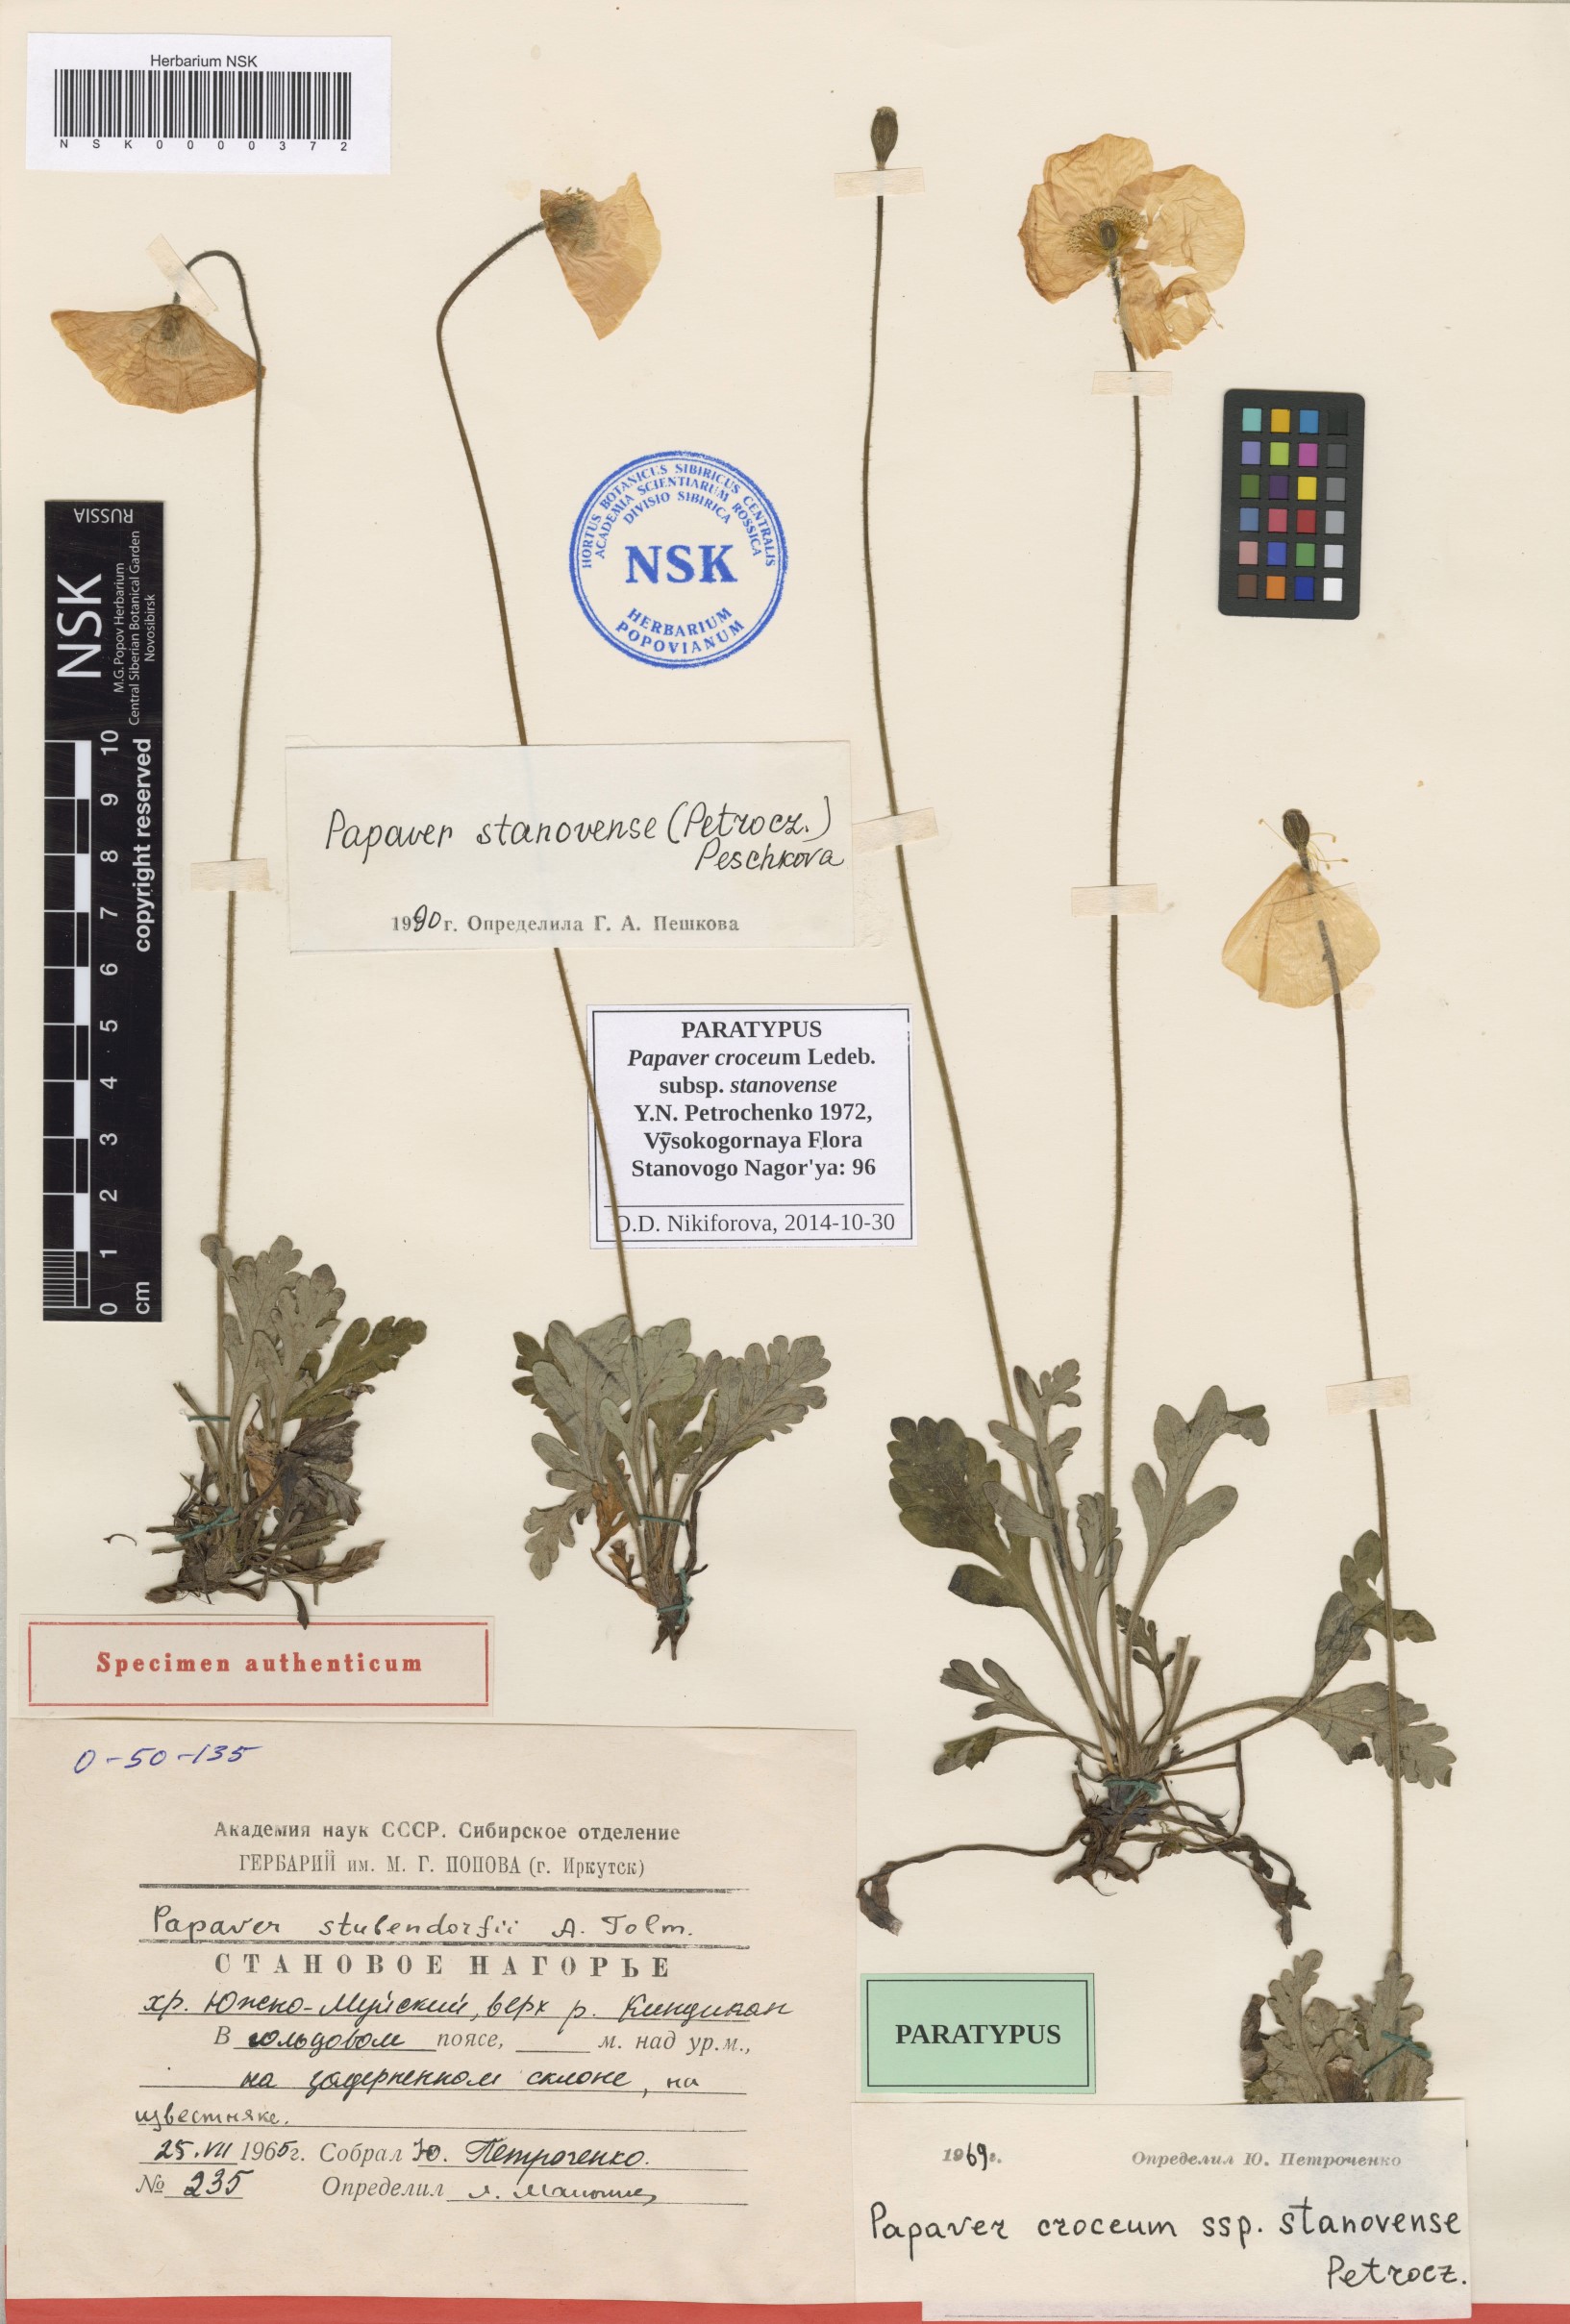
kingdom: Plantae
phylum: Tracheophyta
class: Magnoliopsida
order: Ranunculales
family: Papaveraceae
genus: Papaver
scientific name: Papaver stanovense
